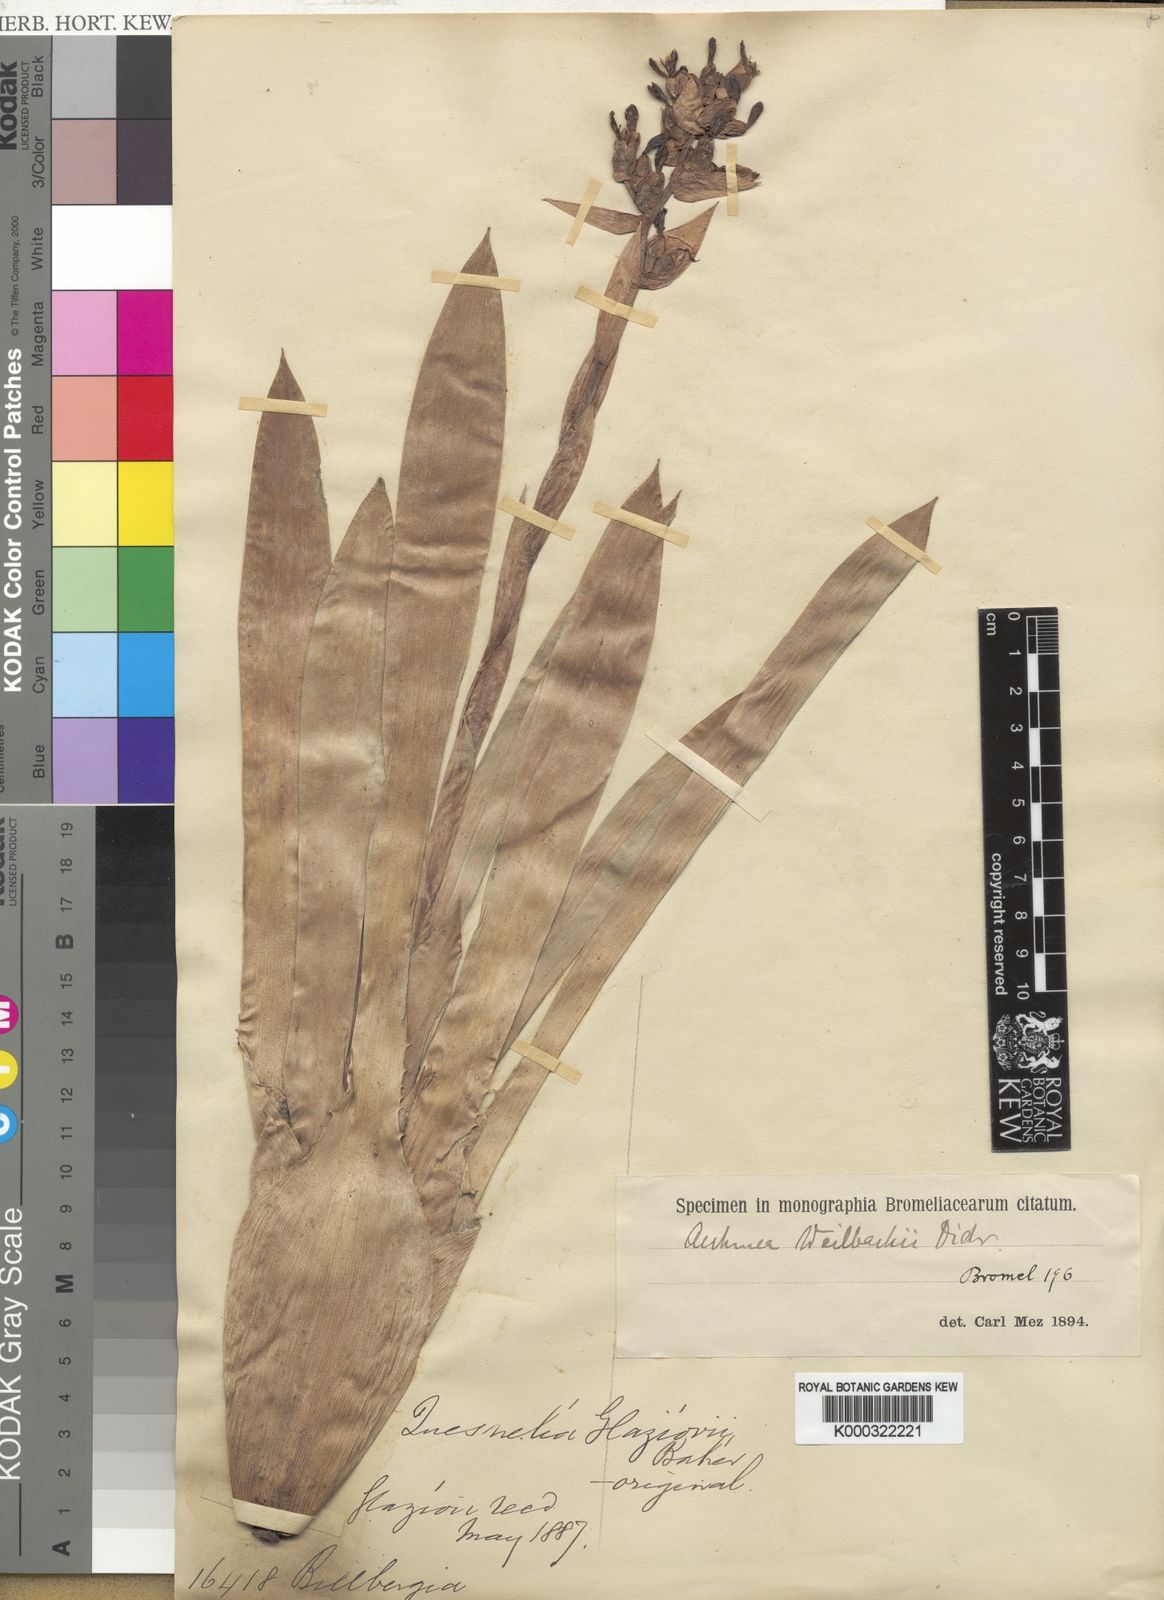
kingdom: Plantae
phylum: Tracheophyta
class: Liliopsida
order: Poales
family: Bromeliaceae
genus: Aechmea
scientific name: Aechmea weilbachii
